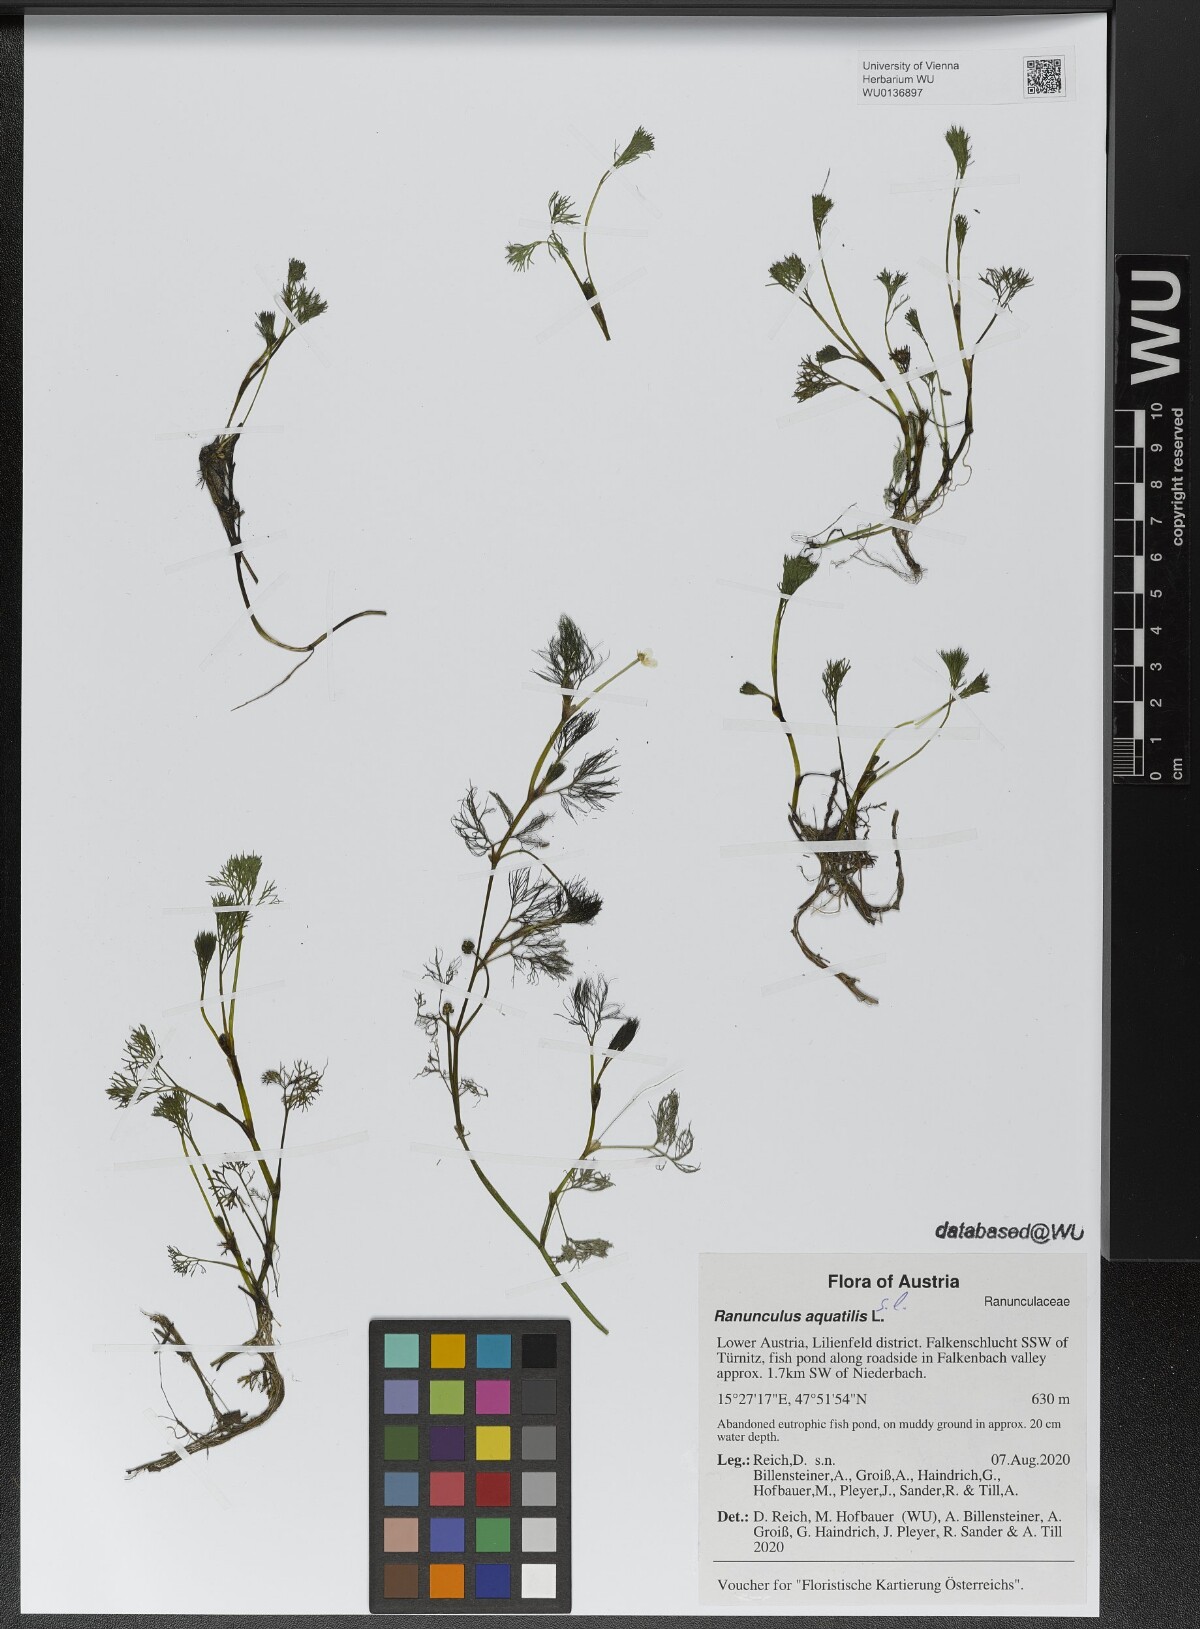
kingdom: Plantae
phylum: Tracheophyta
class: Magnoliopsida
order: Ranunculales
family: Ranunculaceae
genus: Ranunculus
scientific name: Ranunculus aquatilis
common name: Common water-crowfoot
